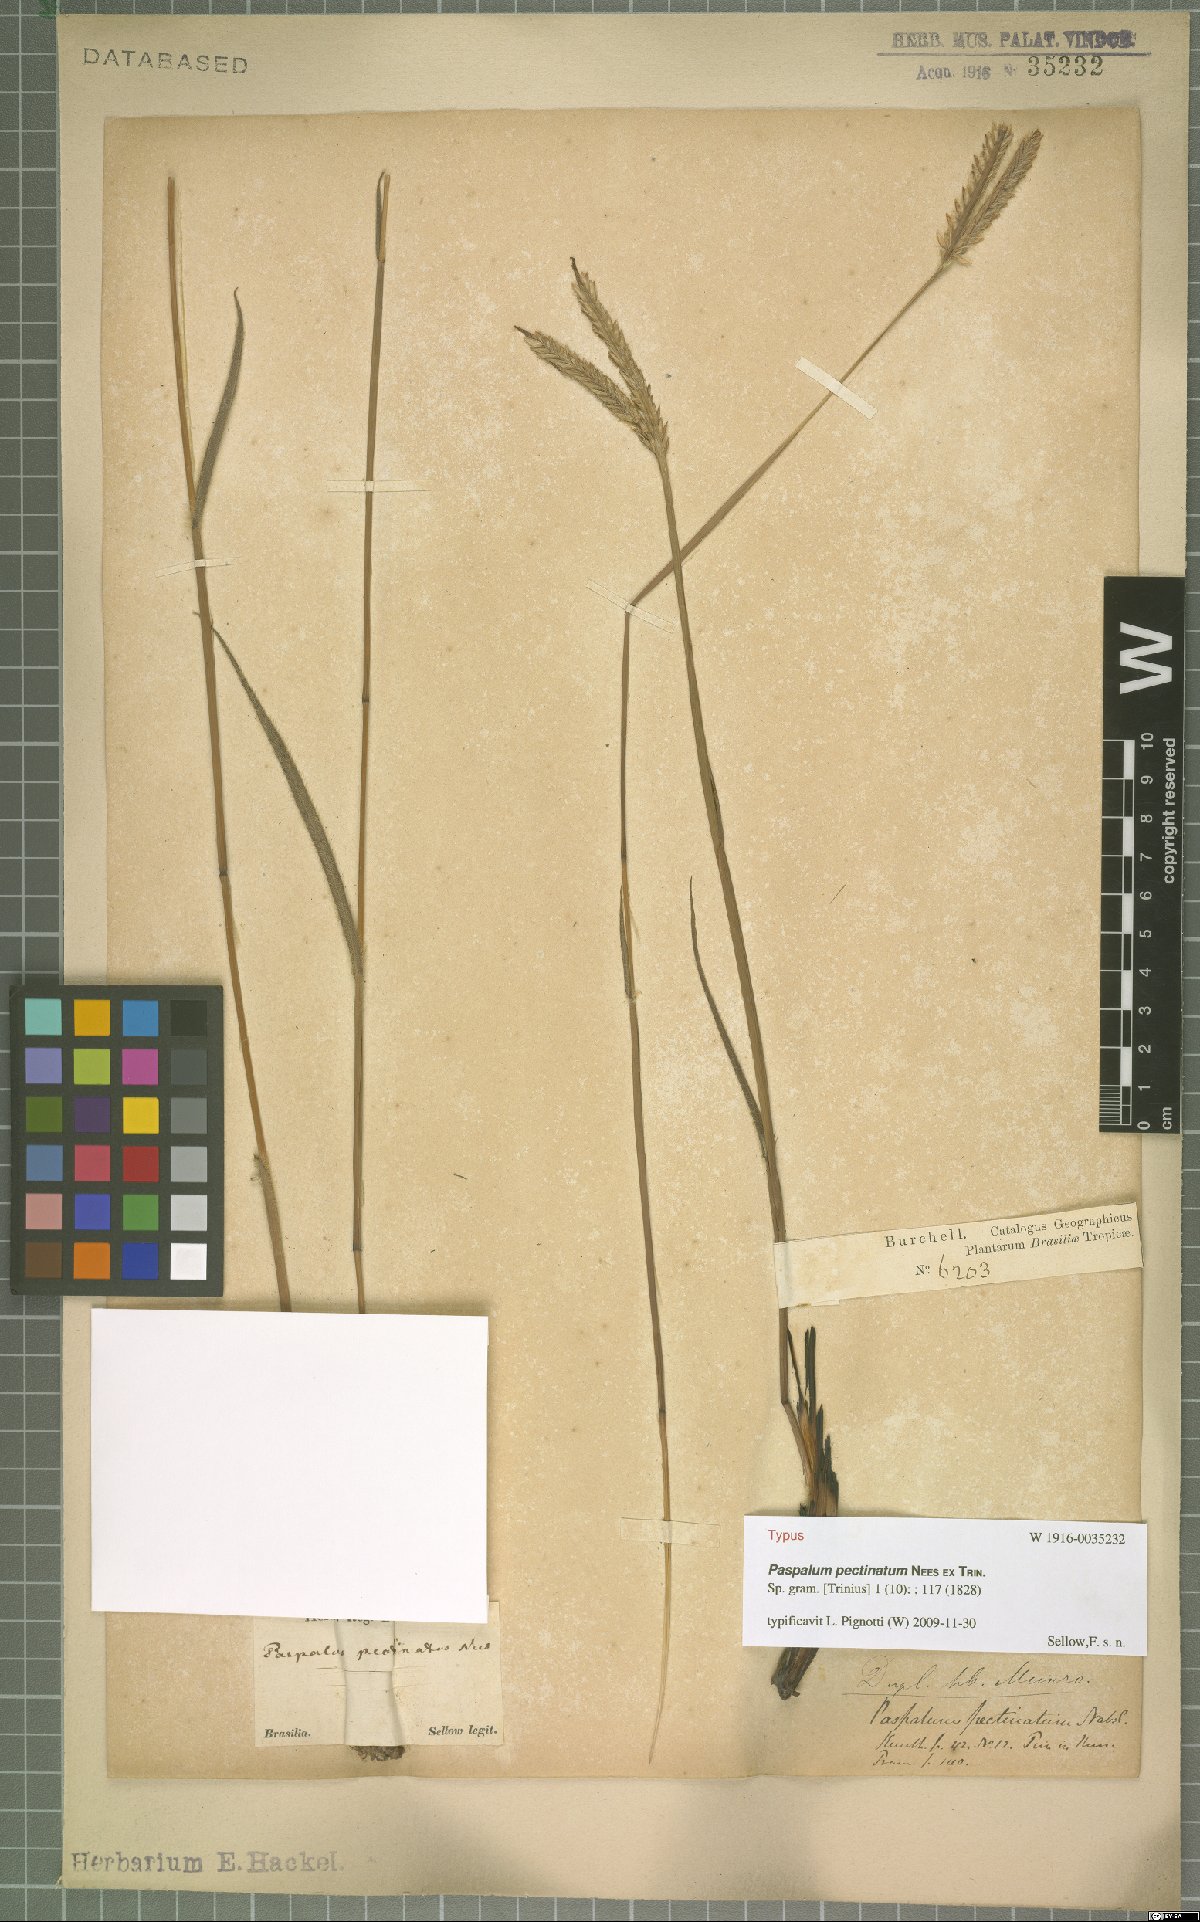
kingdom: Plantae
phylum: Tracheophyta
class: Liliopsida
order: Poales
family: Poaceae
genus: Paspalum
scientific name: Paspalum pectinatum
